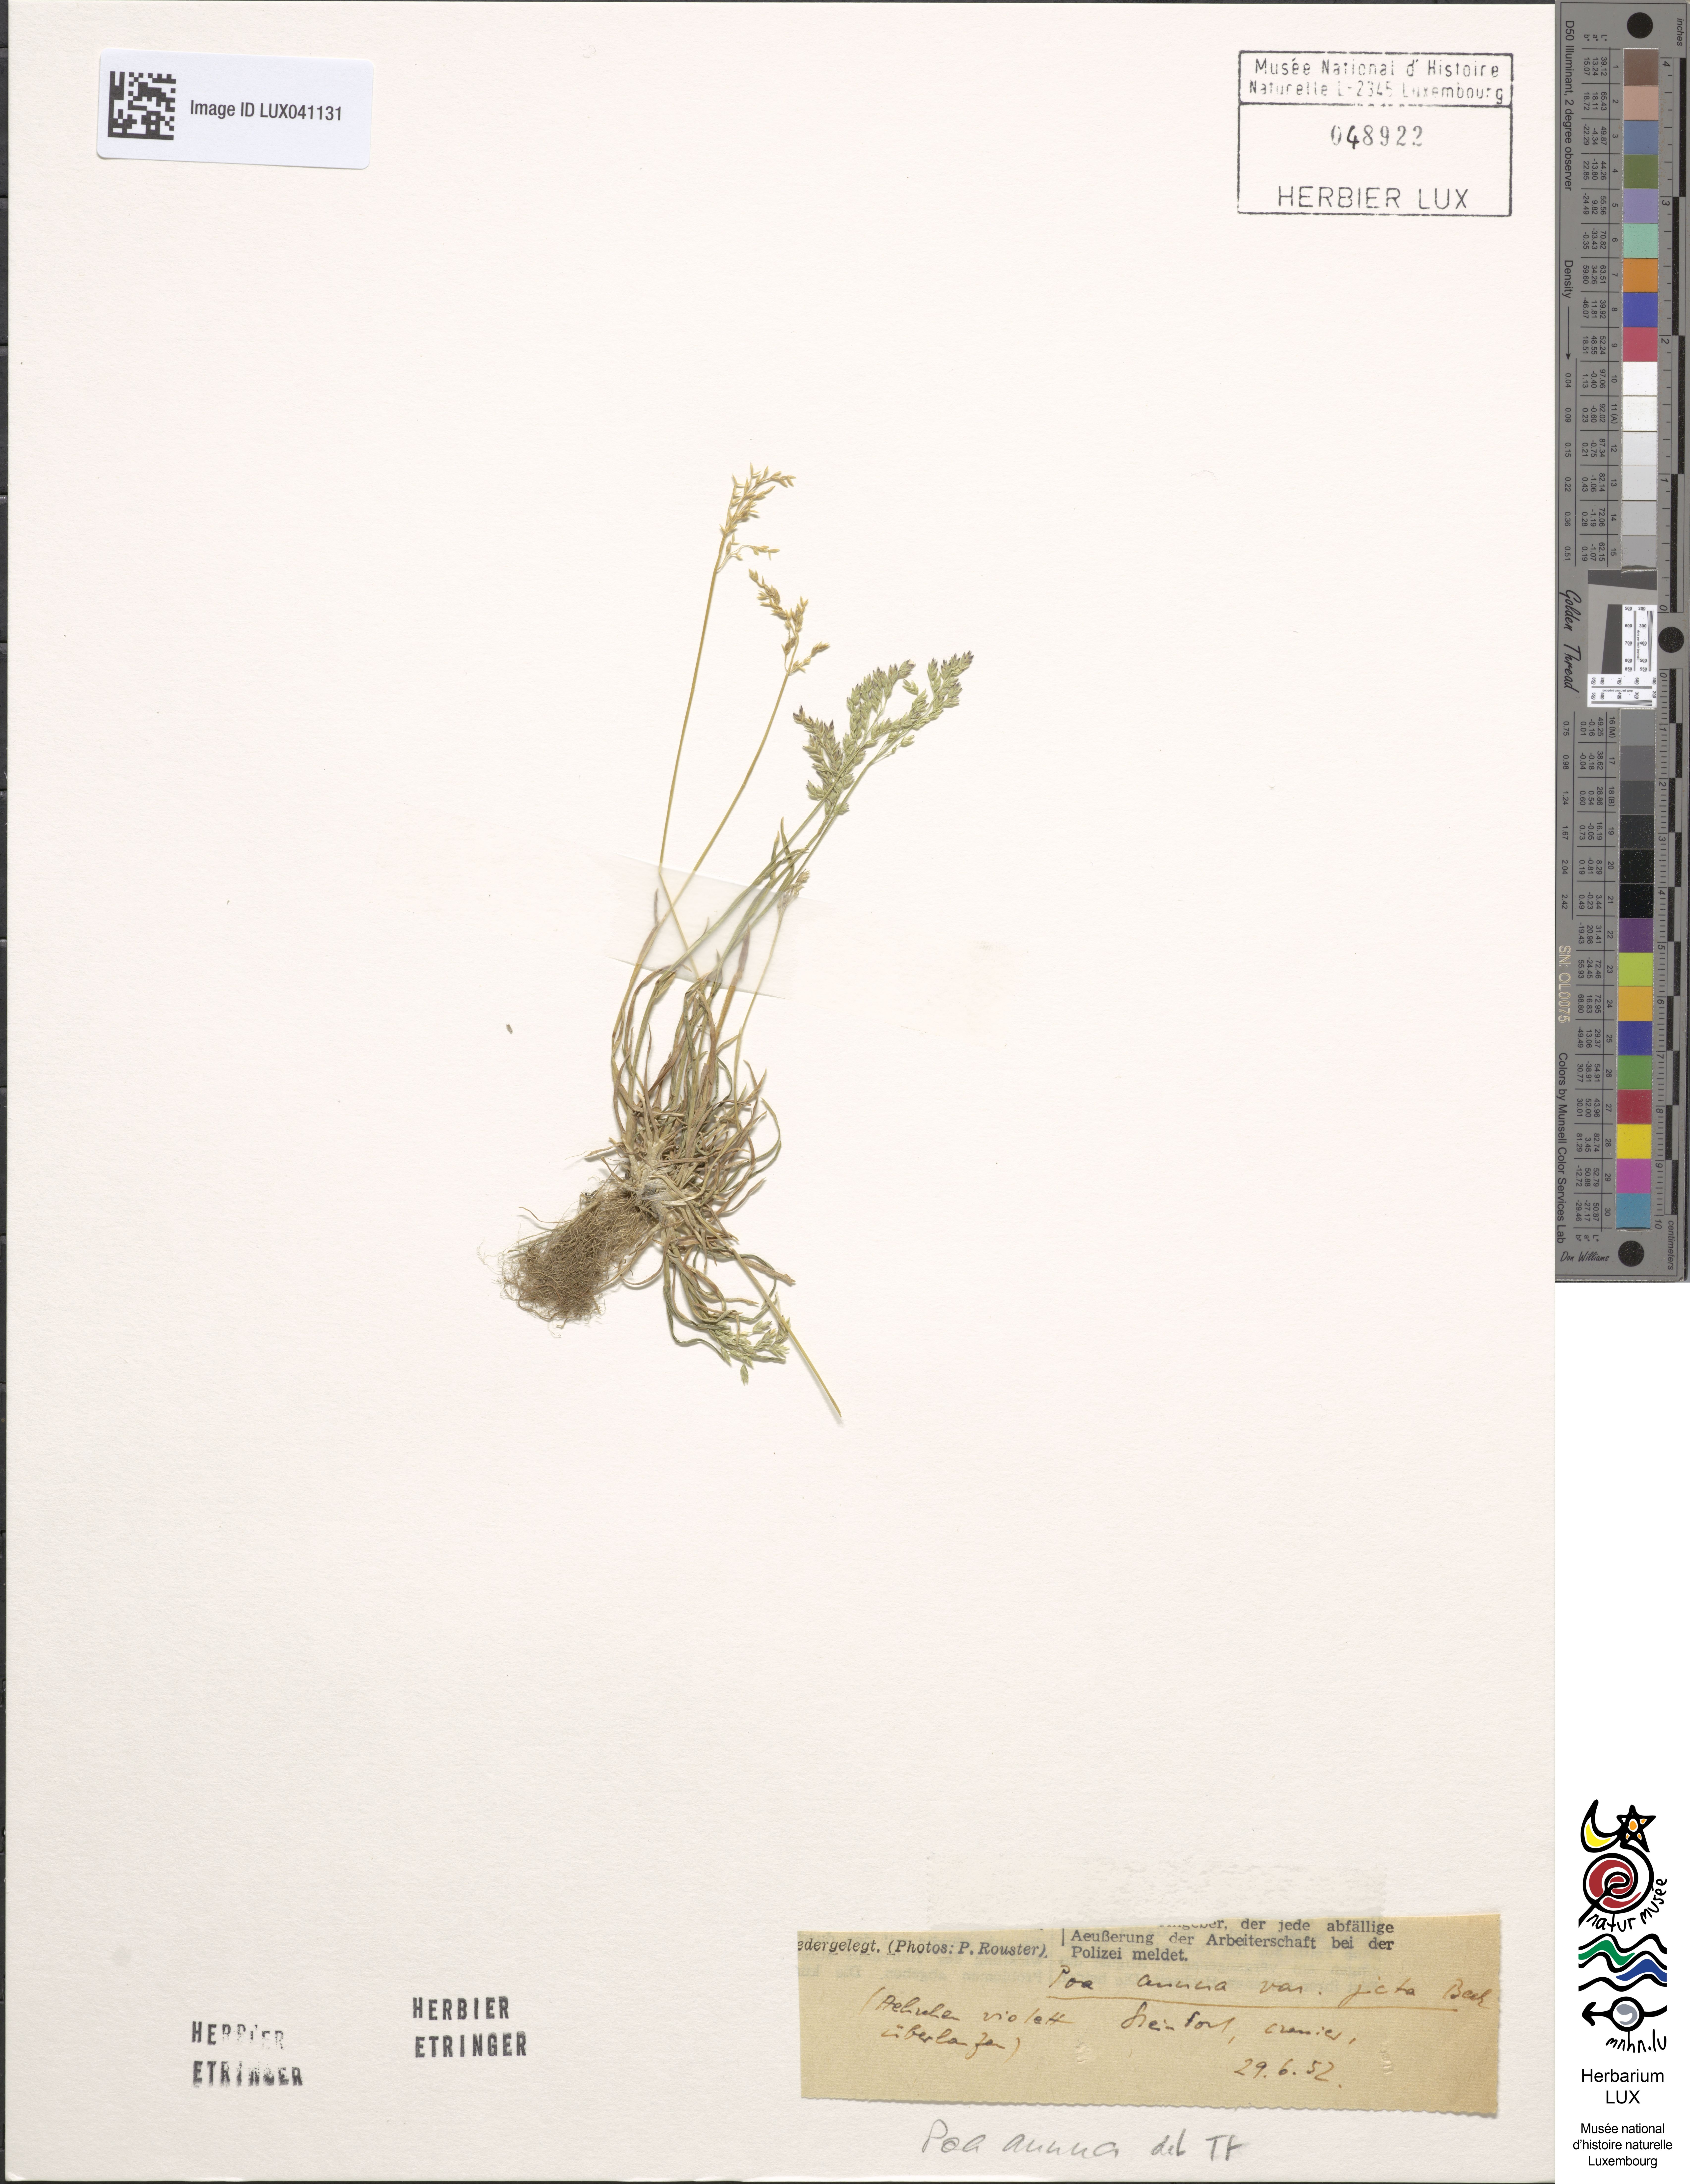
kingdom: Plantae
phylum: Tracheophyta
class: Liliopsida
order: Poales
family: Poaceae
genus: Poa
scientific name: Poa annua
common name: Annual bluegrass
